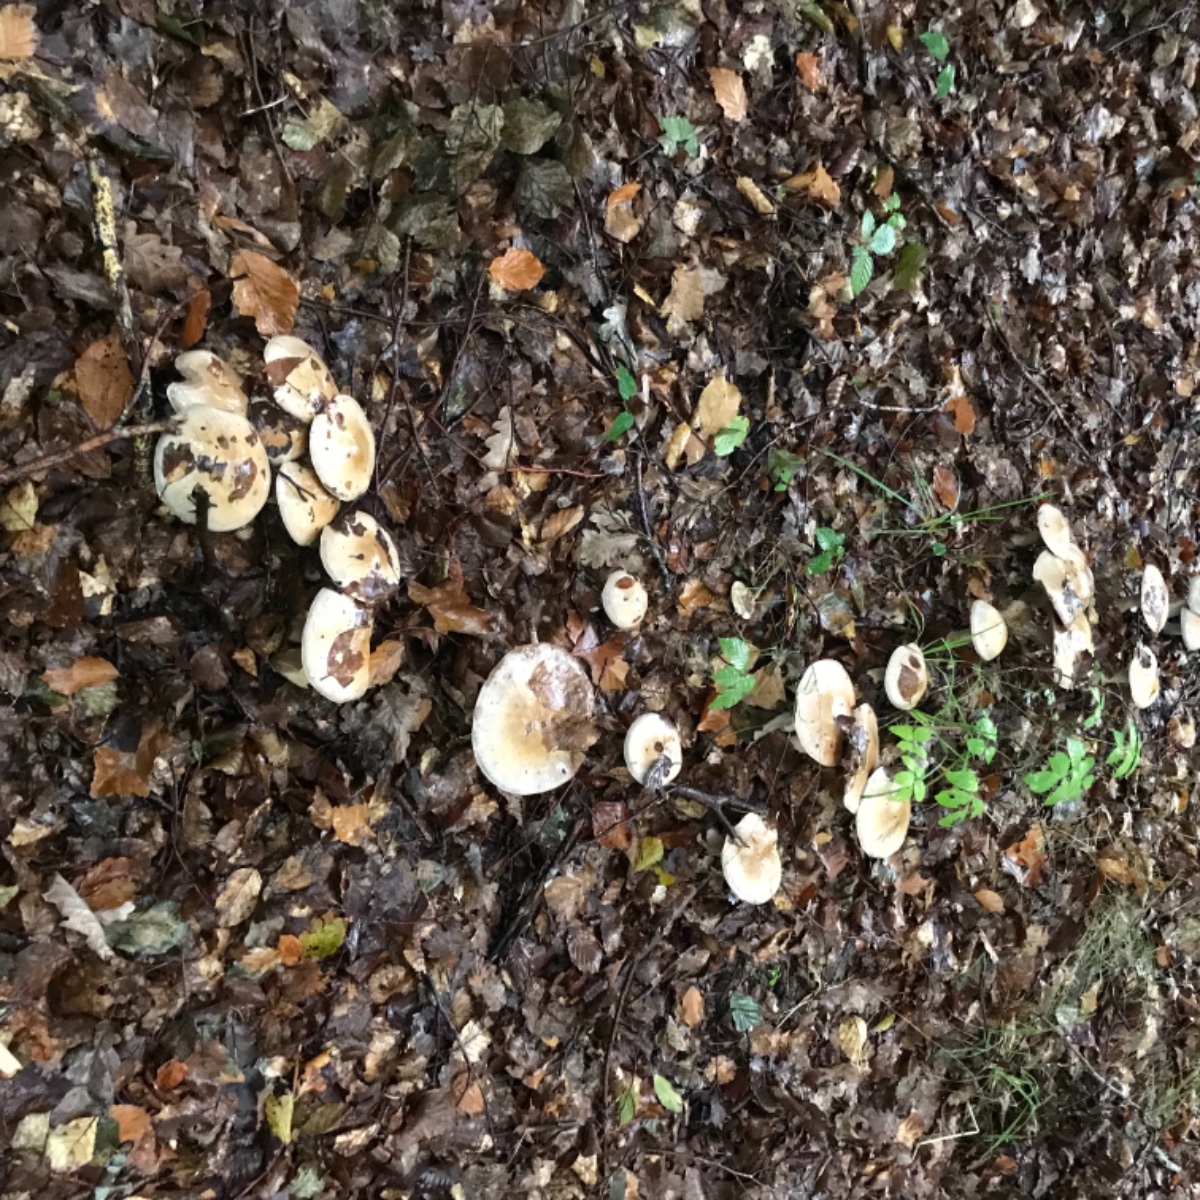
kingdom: Fungi
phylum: Basidiomycota
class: Agaricomycetes
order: Agaricales
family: Cortinariaceae
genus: Cortinarius
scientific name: Cortinarius largus
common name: violetrandet slørhat
